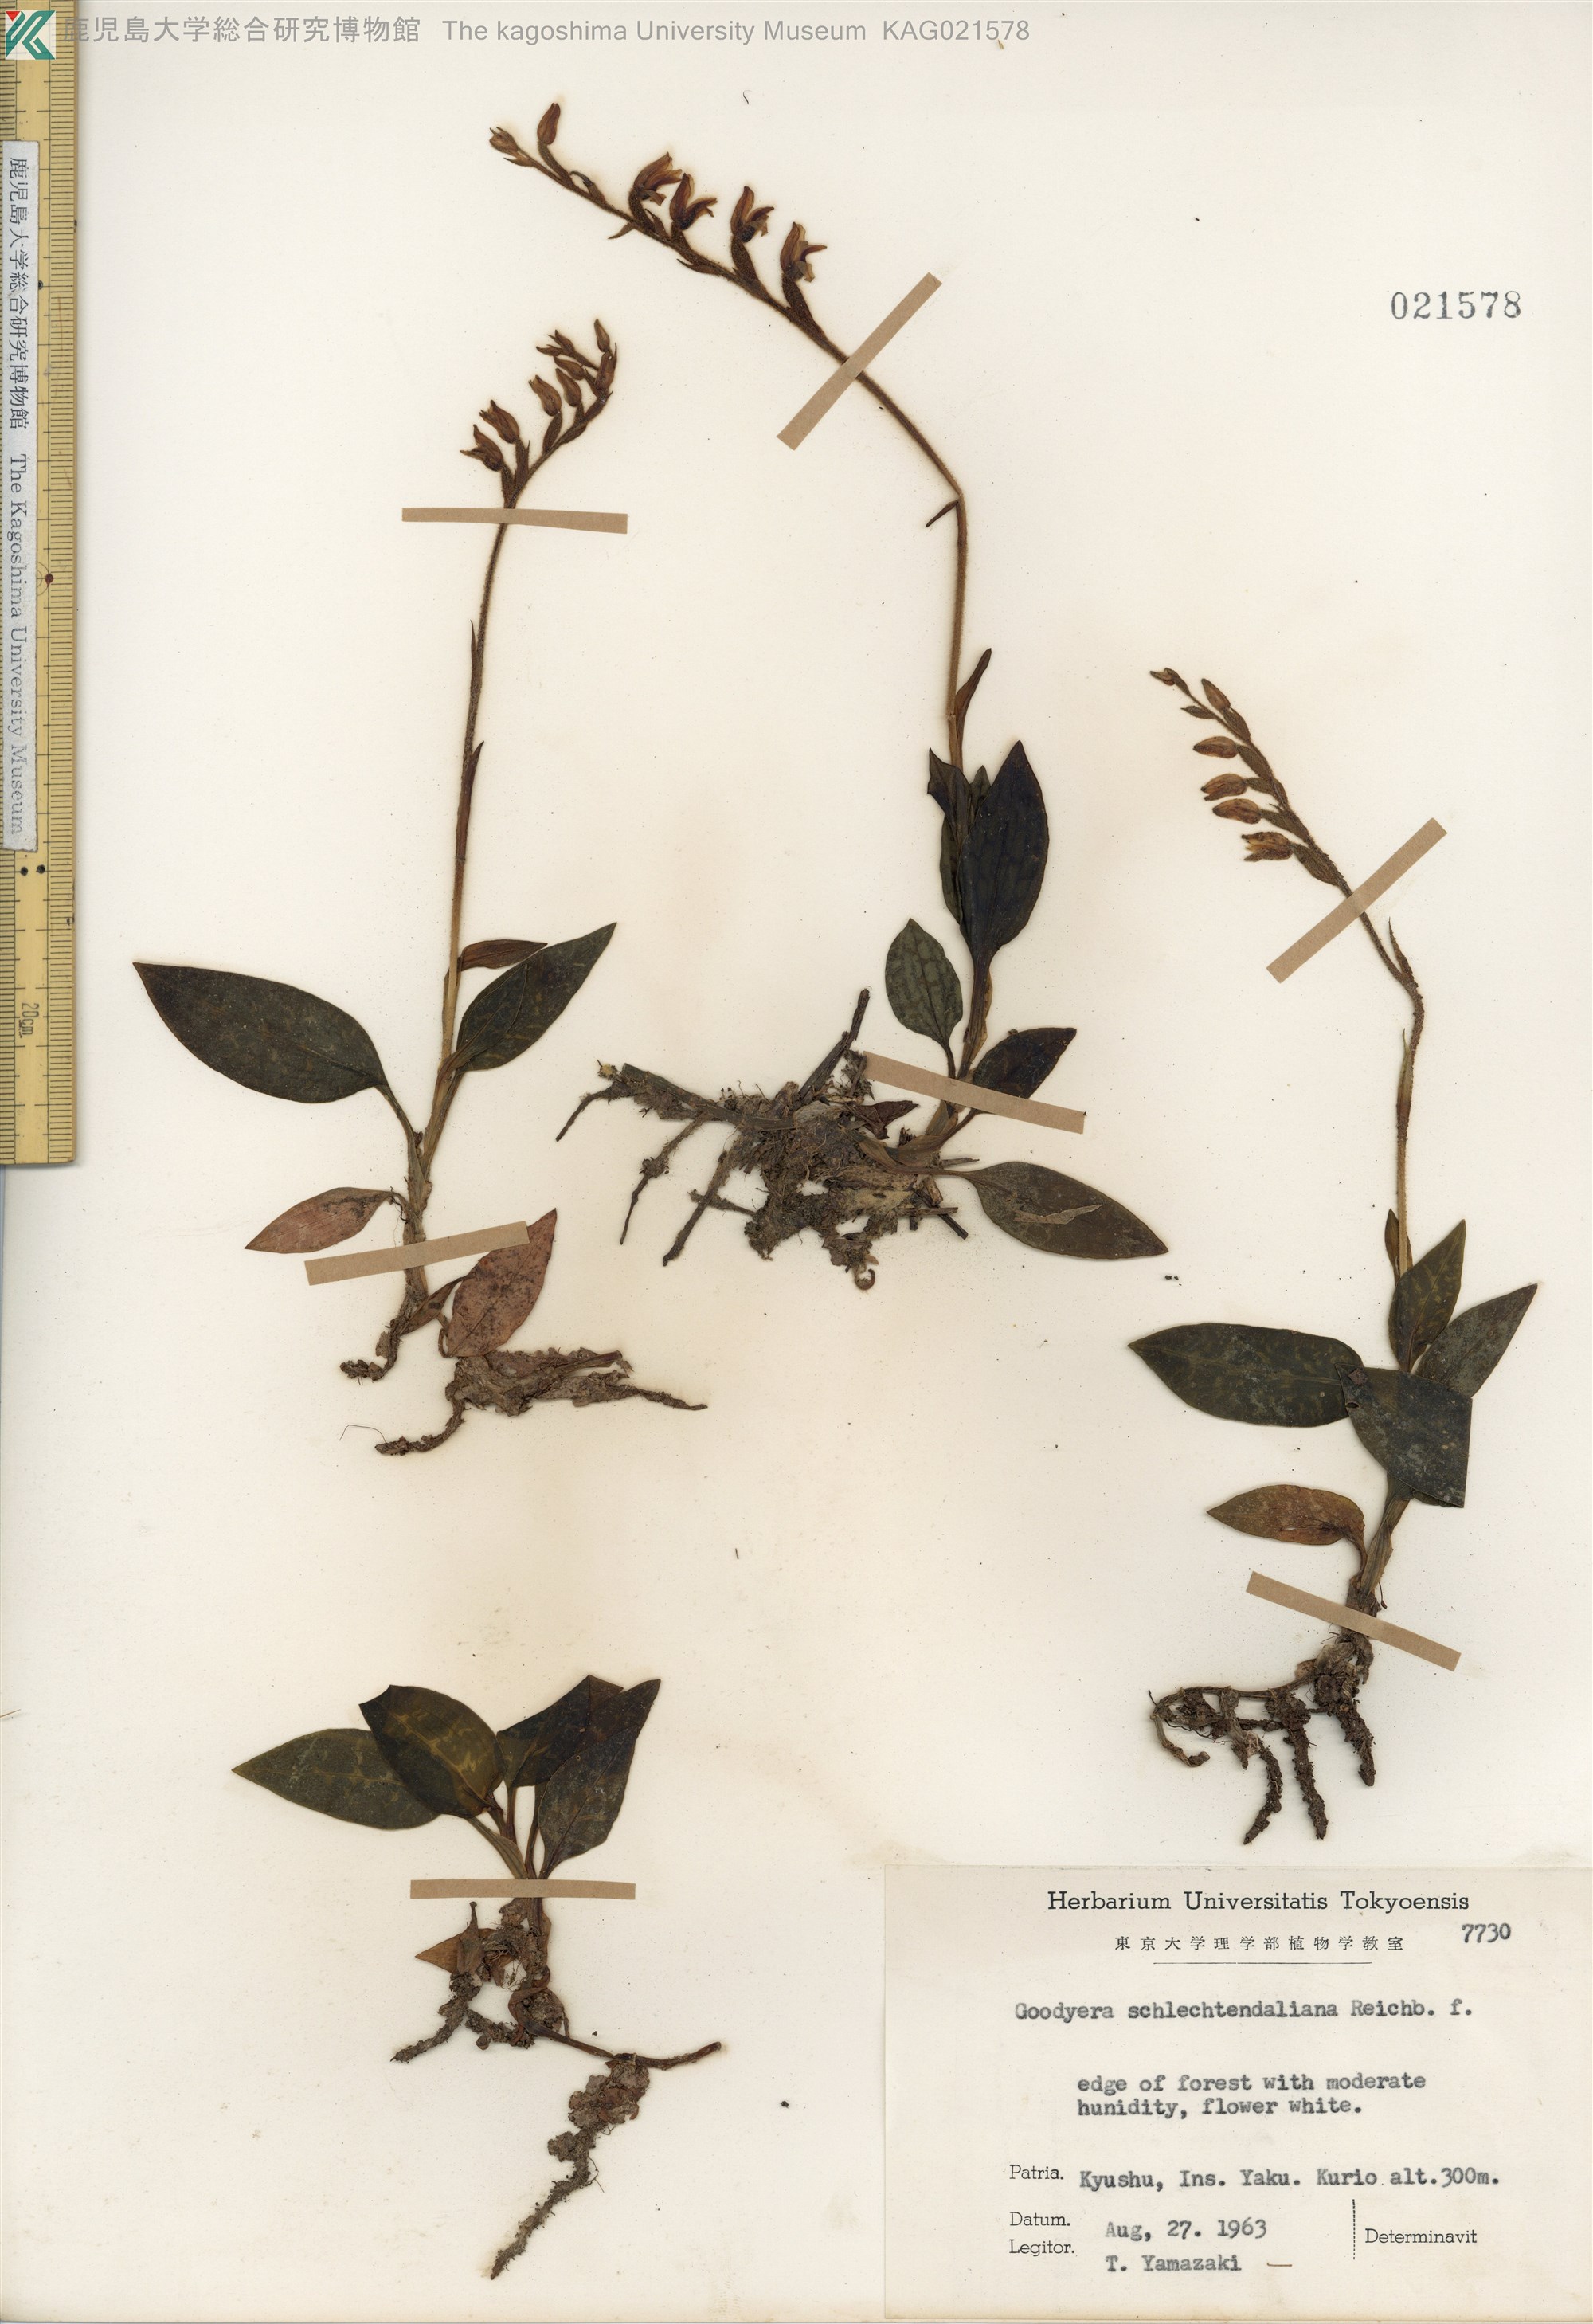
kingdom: Plantae
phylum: Tracheophyta
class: Liliopsida
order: Asparagales
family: Orchidaceae
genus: Goodyera
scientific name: Goodyera schlechtendaliana
